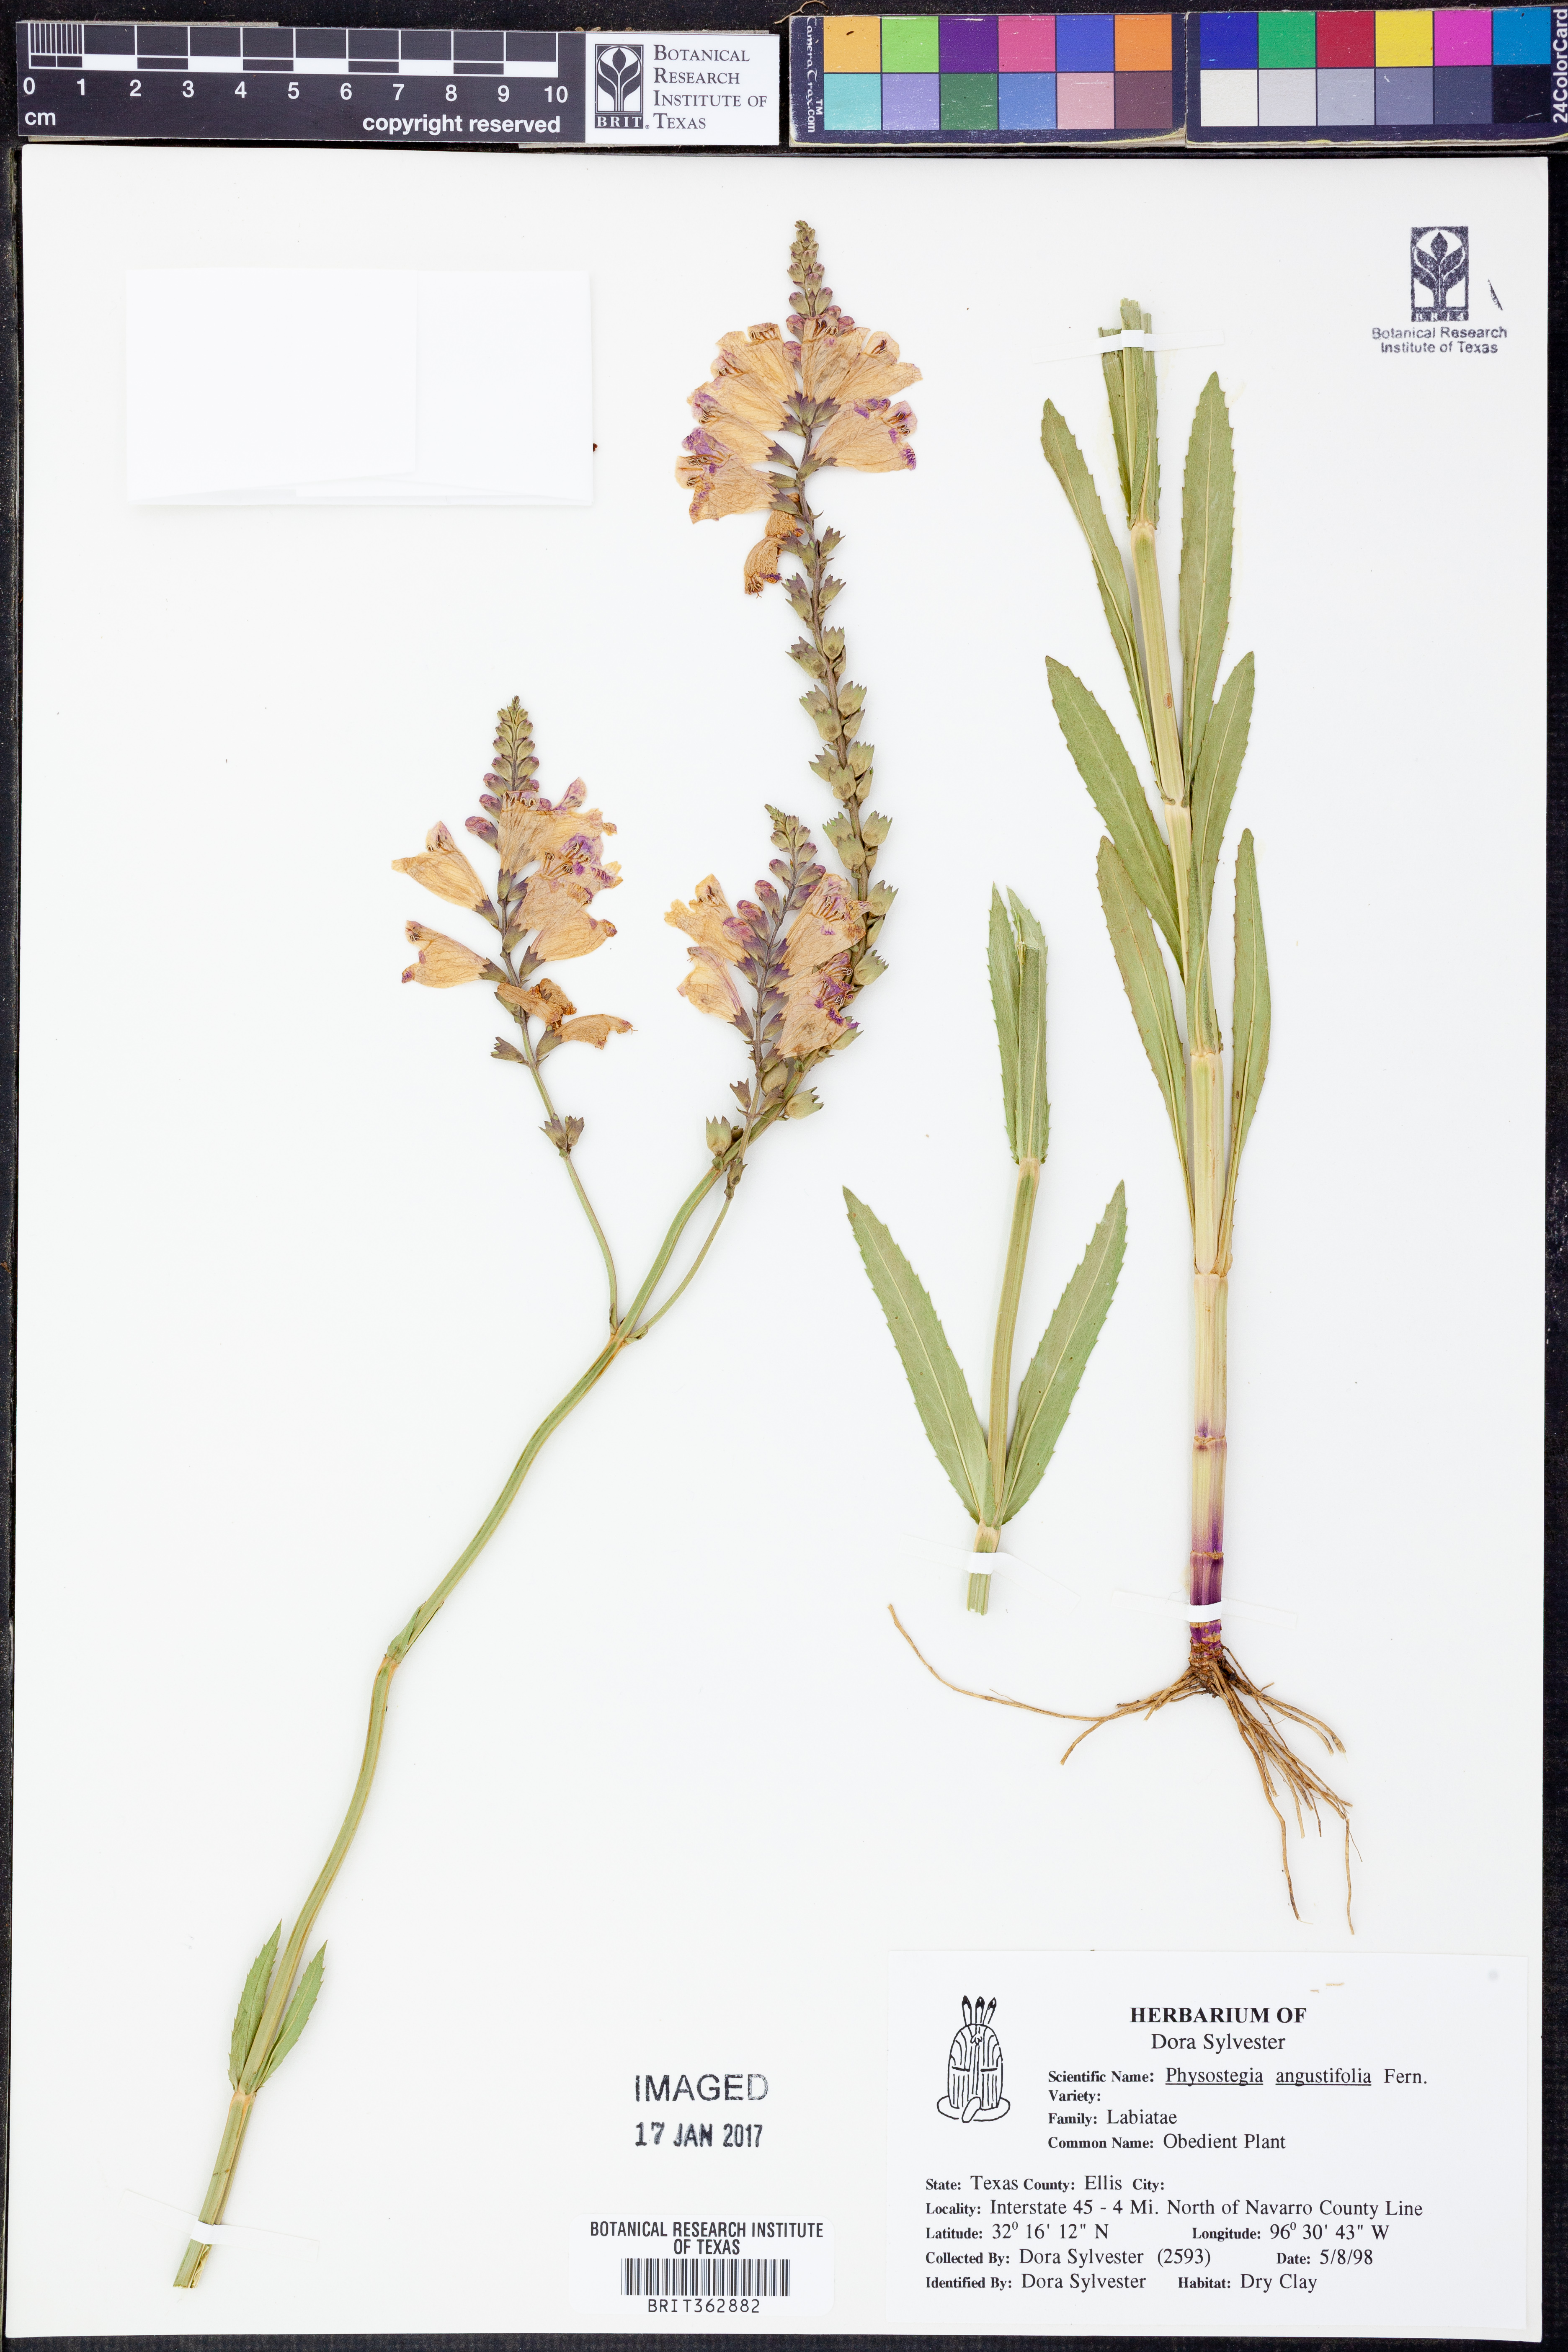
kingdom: Plantae
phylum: Tracheophyta
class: Magnoliopsida
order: Lamiales
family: Lamiaceae
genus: Physostegia
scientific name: Physostegia angustifolia
